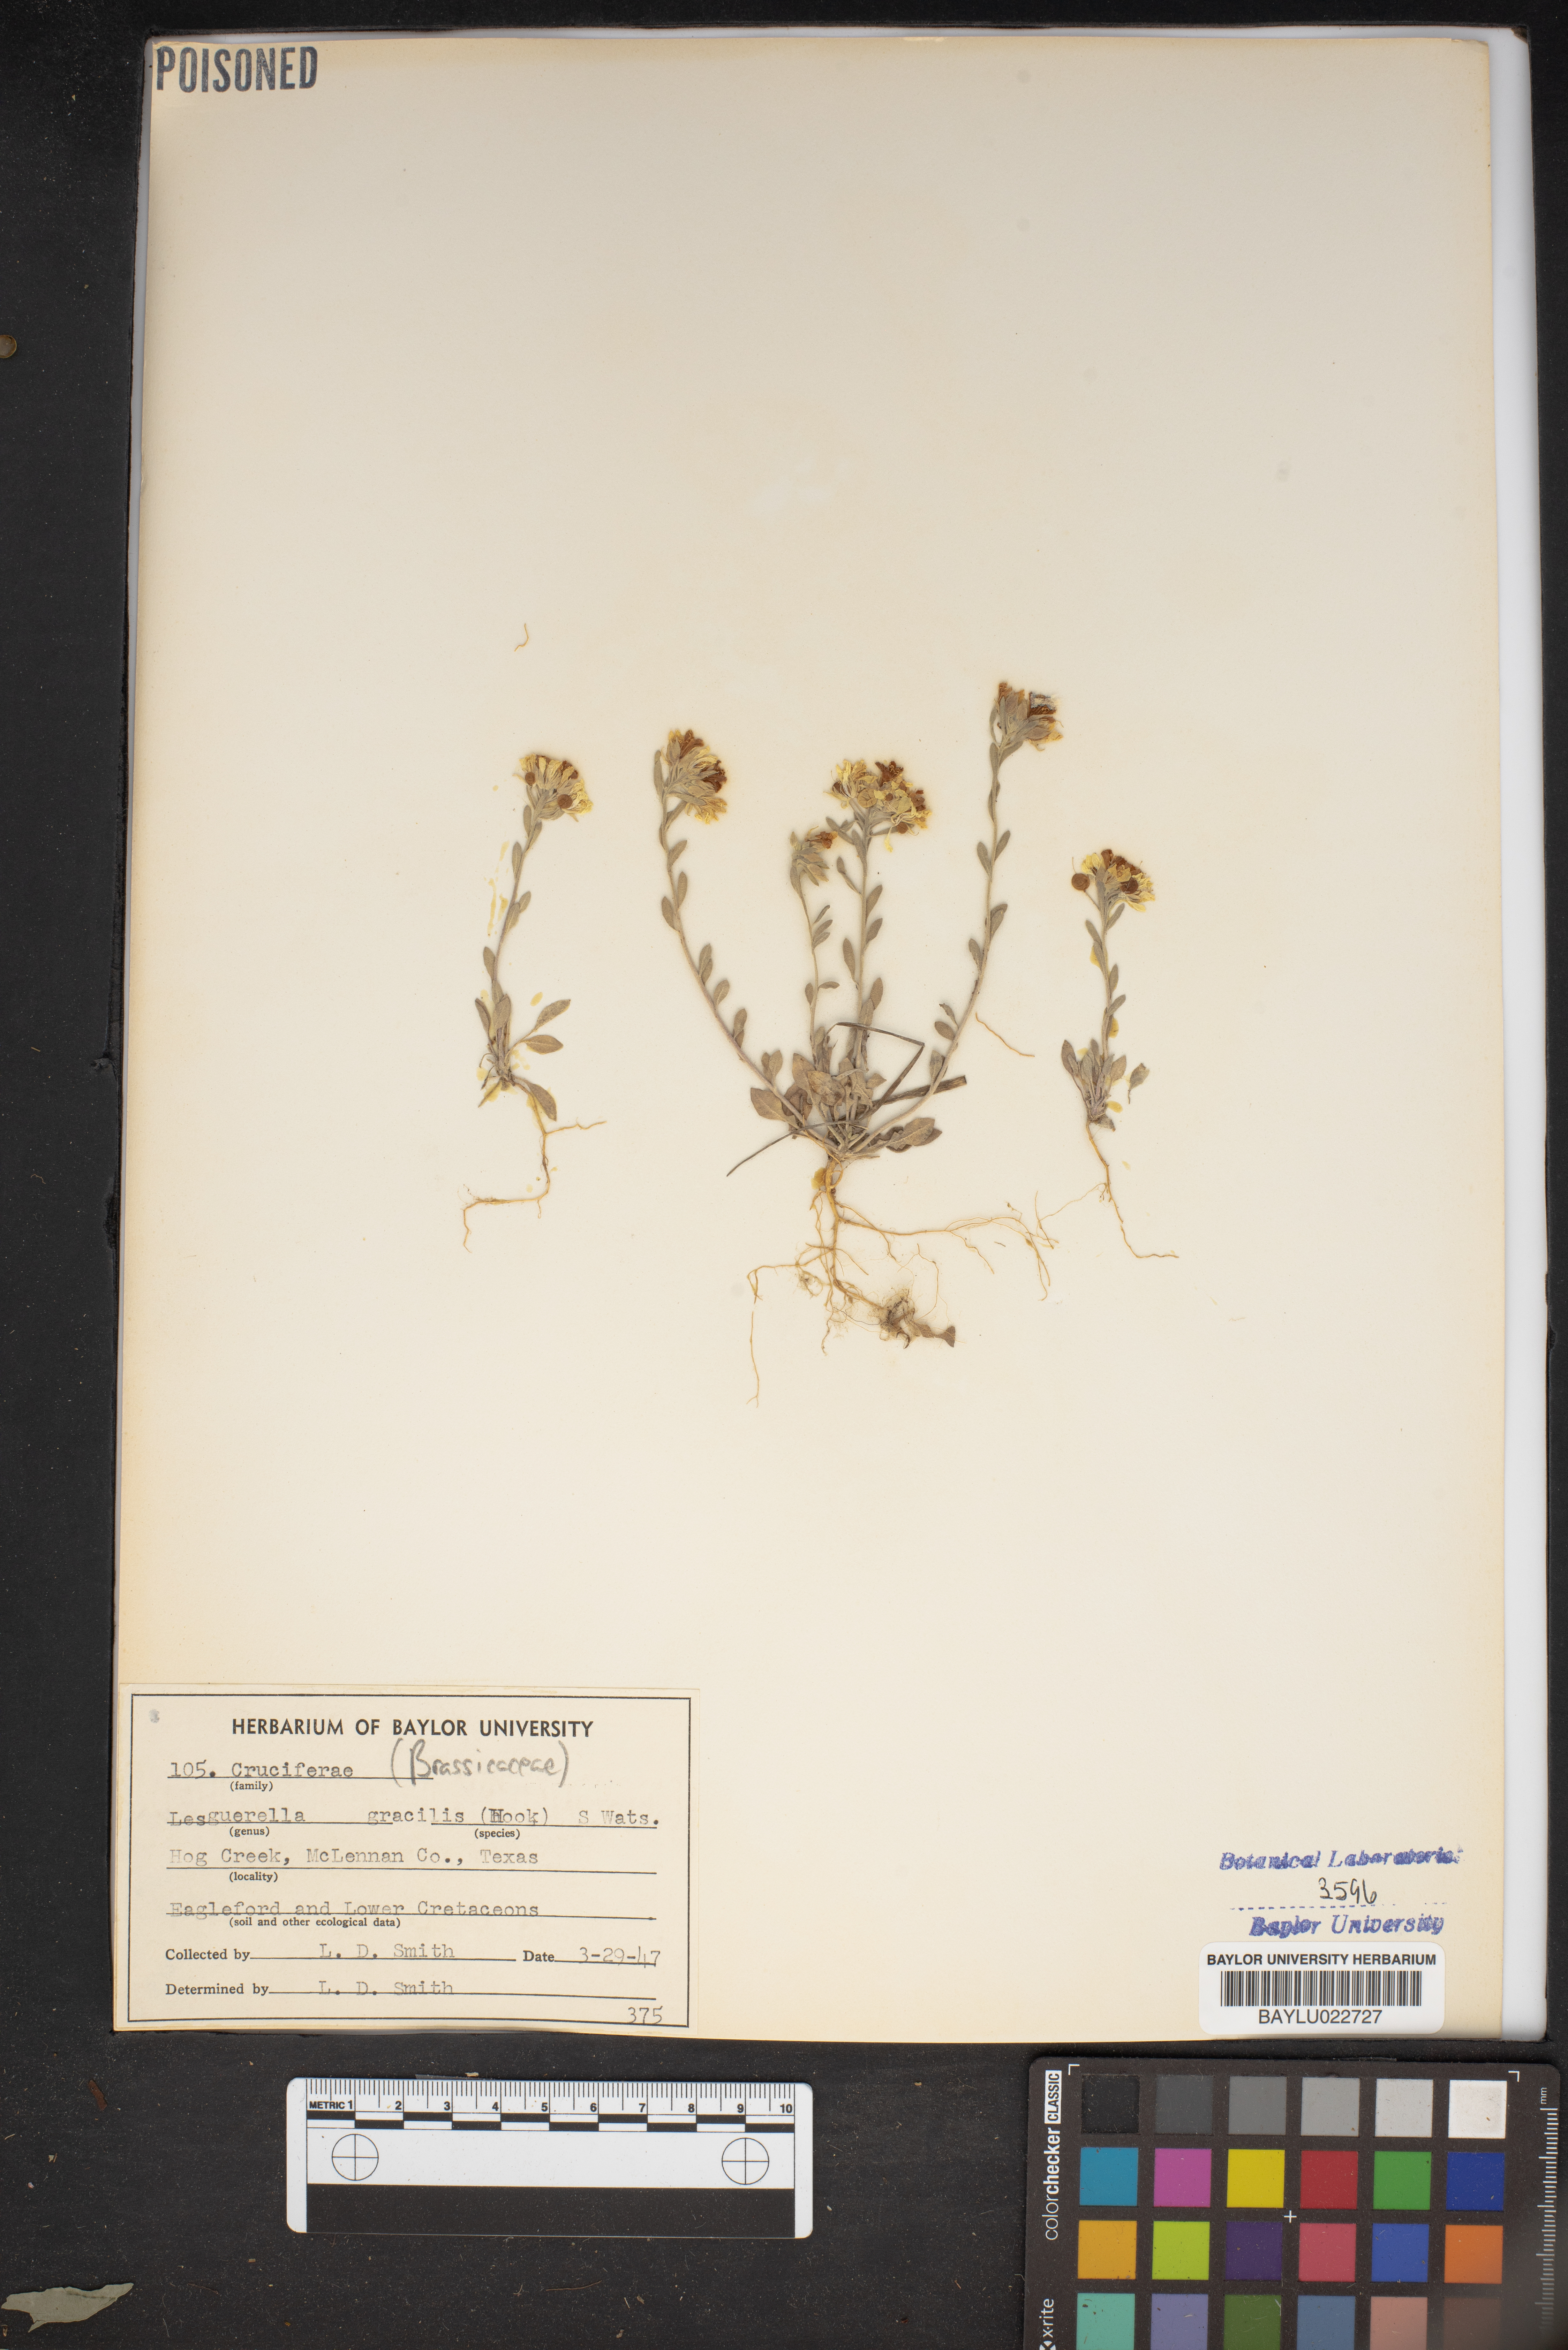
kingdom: Plantae
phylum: Tracheophyta
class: Magnoliopsida
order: Brassicales
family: Brassicaceae
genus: Physaria
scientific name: Physaria gracilis
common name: Spreading bladderpod
